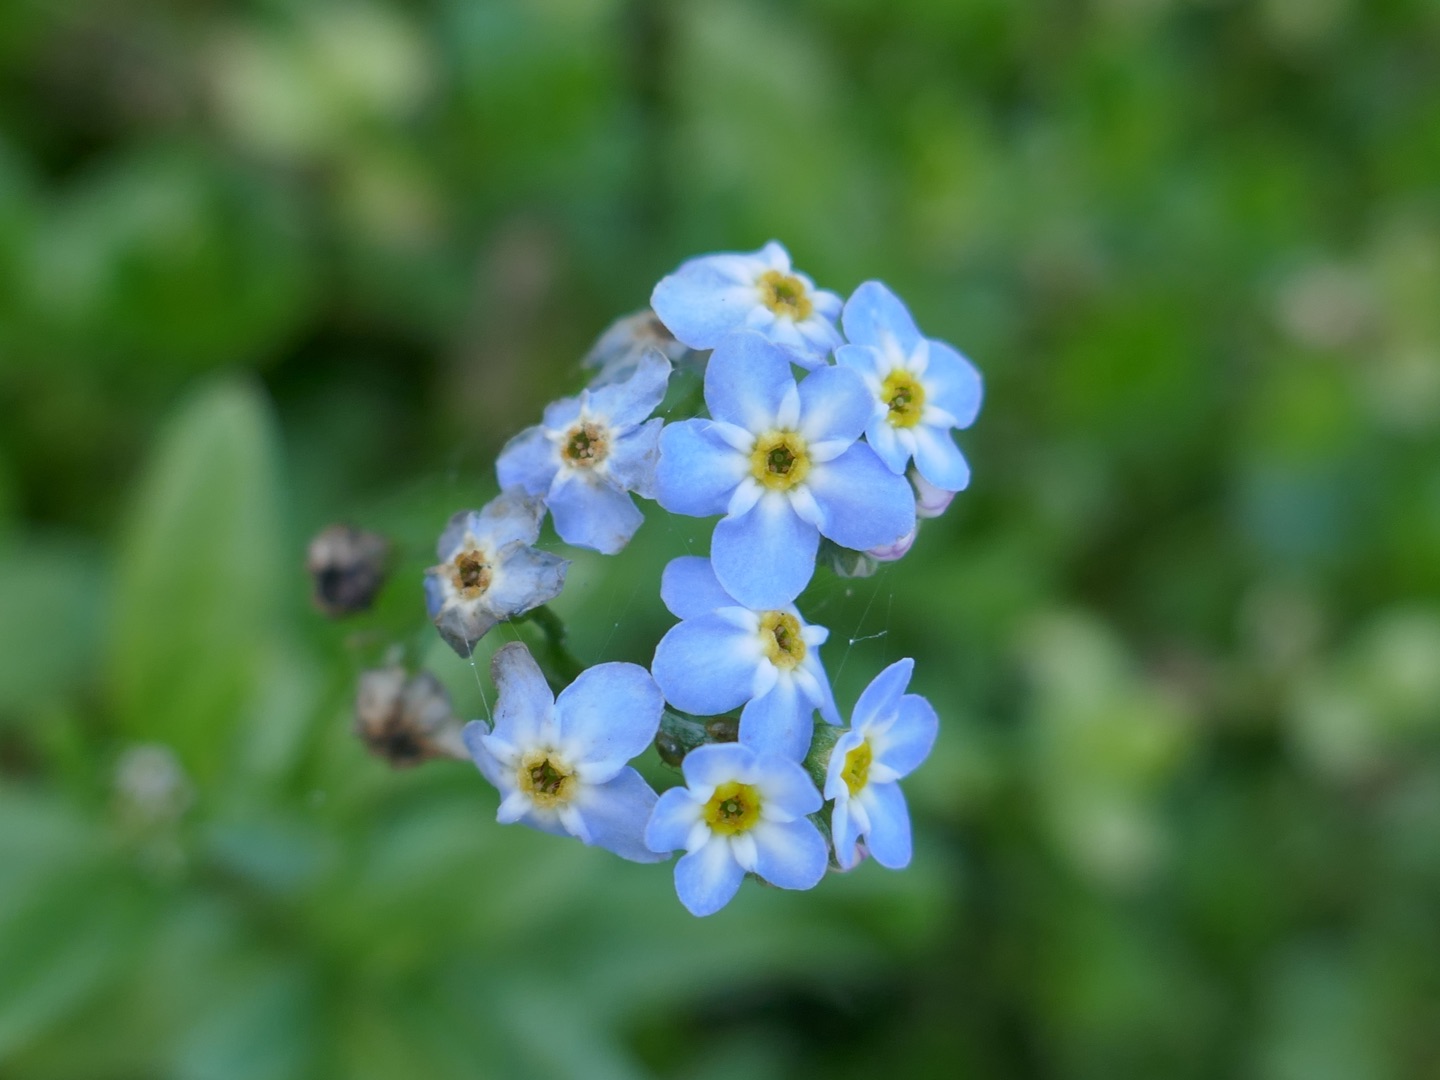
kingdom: Plantae
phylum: Tracheophyta
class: Magnoliopsida
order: Boraginales
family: Boraginaceae
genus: Myosotis
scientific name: Myosotis scorpioides
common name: Eng-forglemmigej
